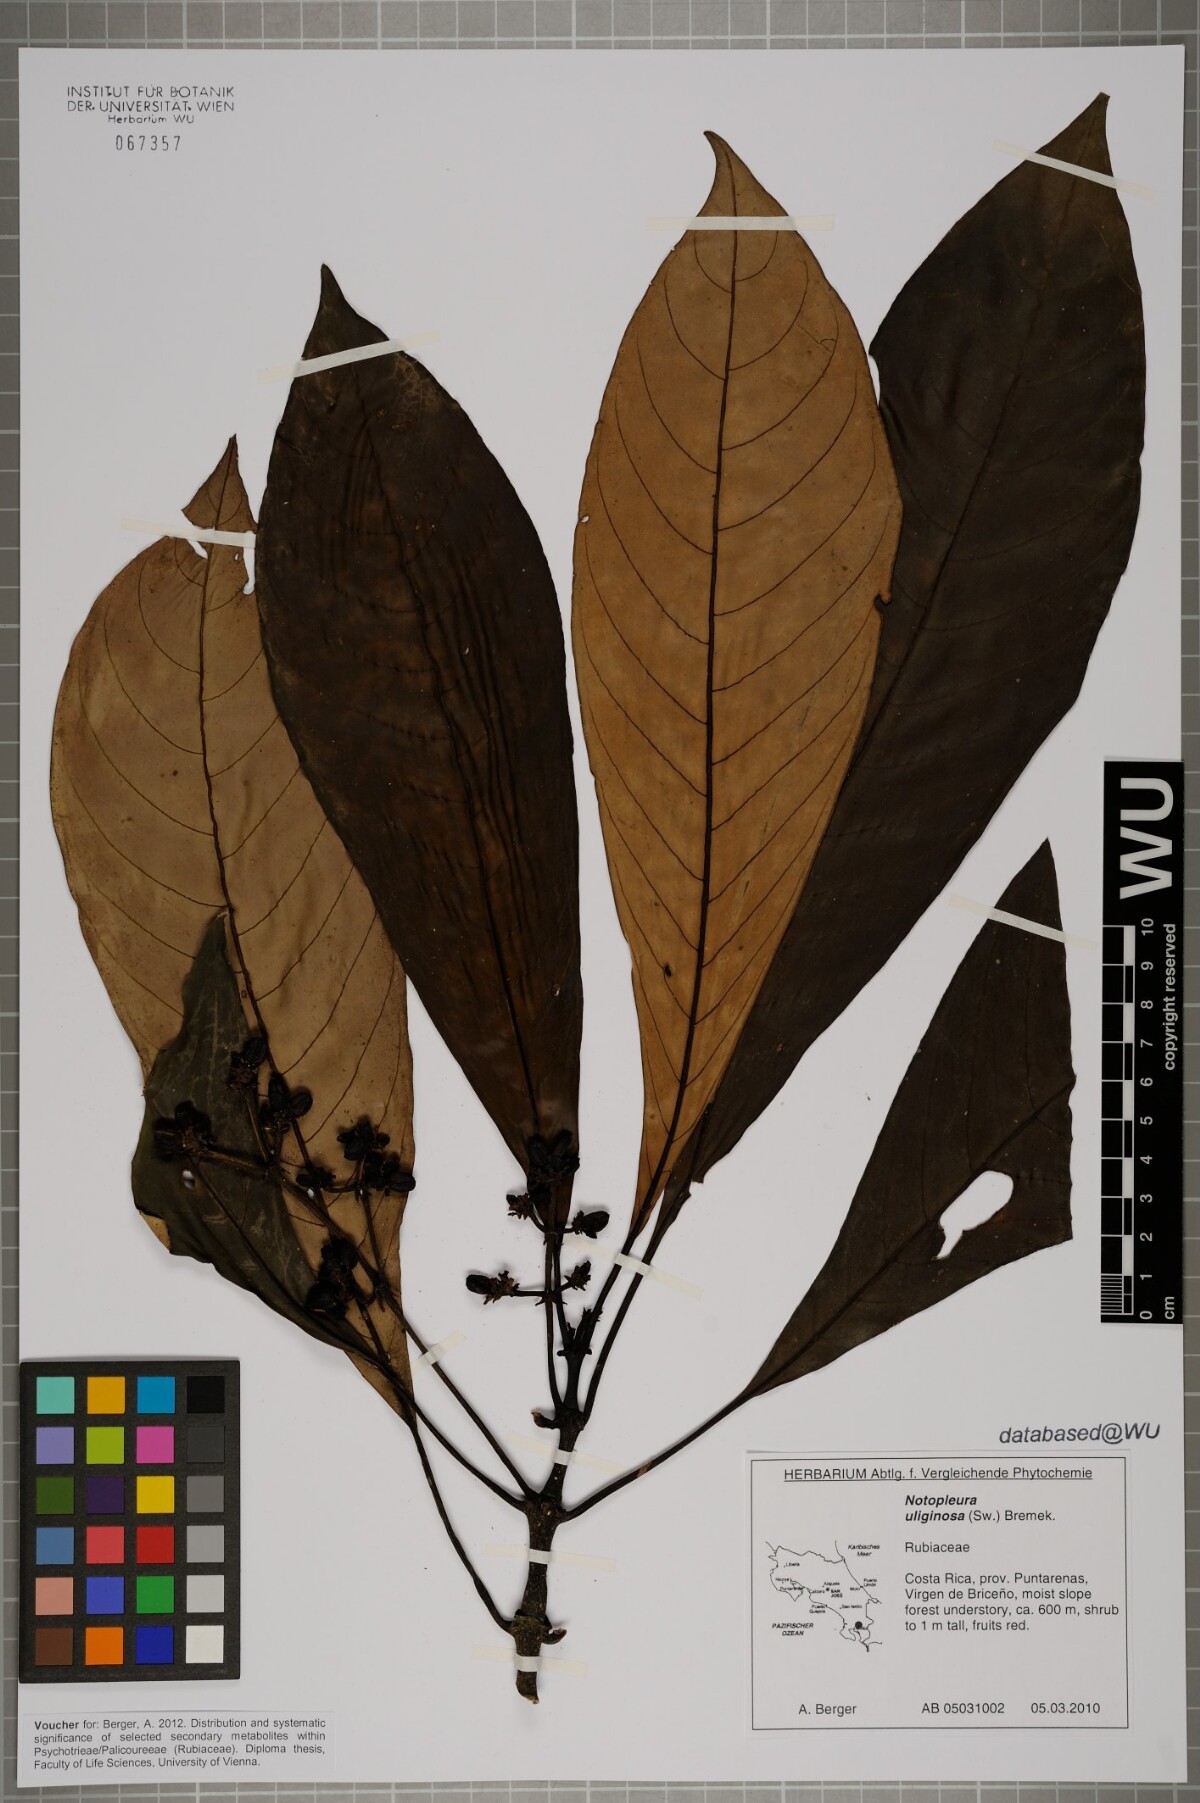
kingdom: Plantae
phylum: Tracheophyta
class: Magnoliopsida
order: Gentianales
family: Rubiaceae
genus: Notopleura
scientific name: Notopleura uliginosa
